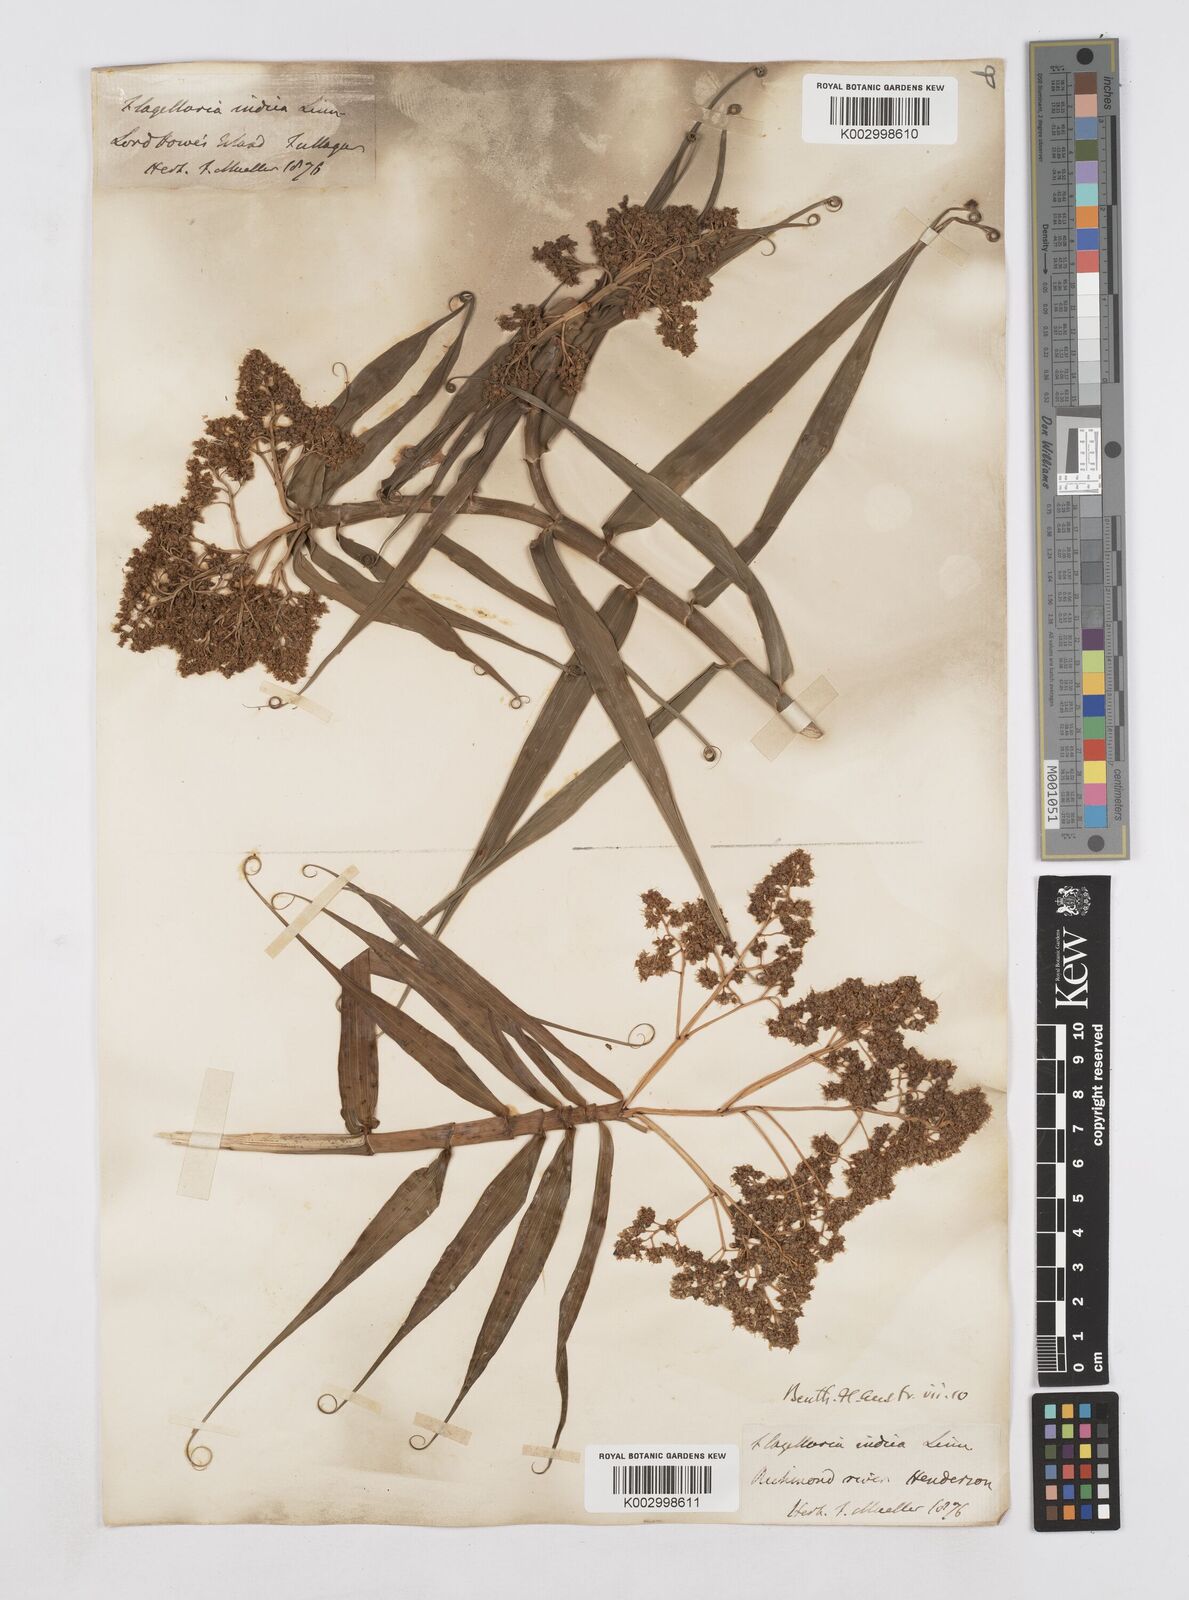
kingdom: Plantae
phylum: Tracheophyta
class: Liliopsida
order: Poales
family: Flagellariaceae
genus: Flagellaria
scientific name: Flagellaria indica
